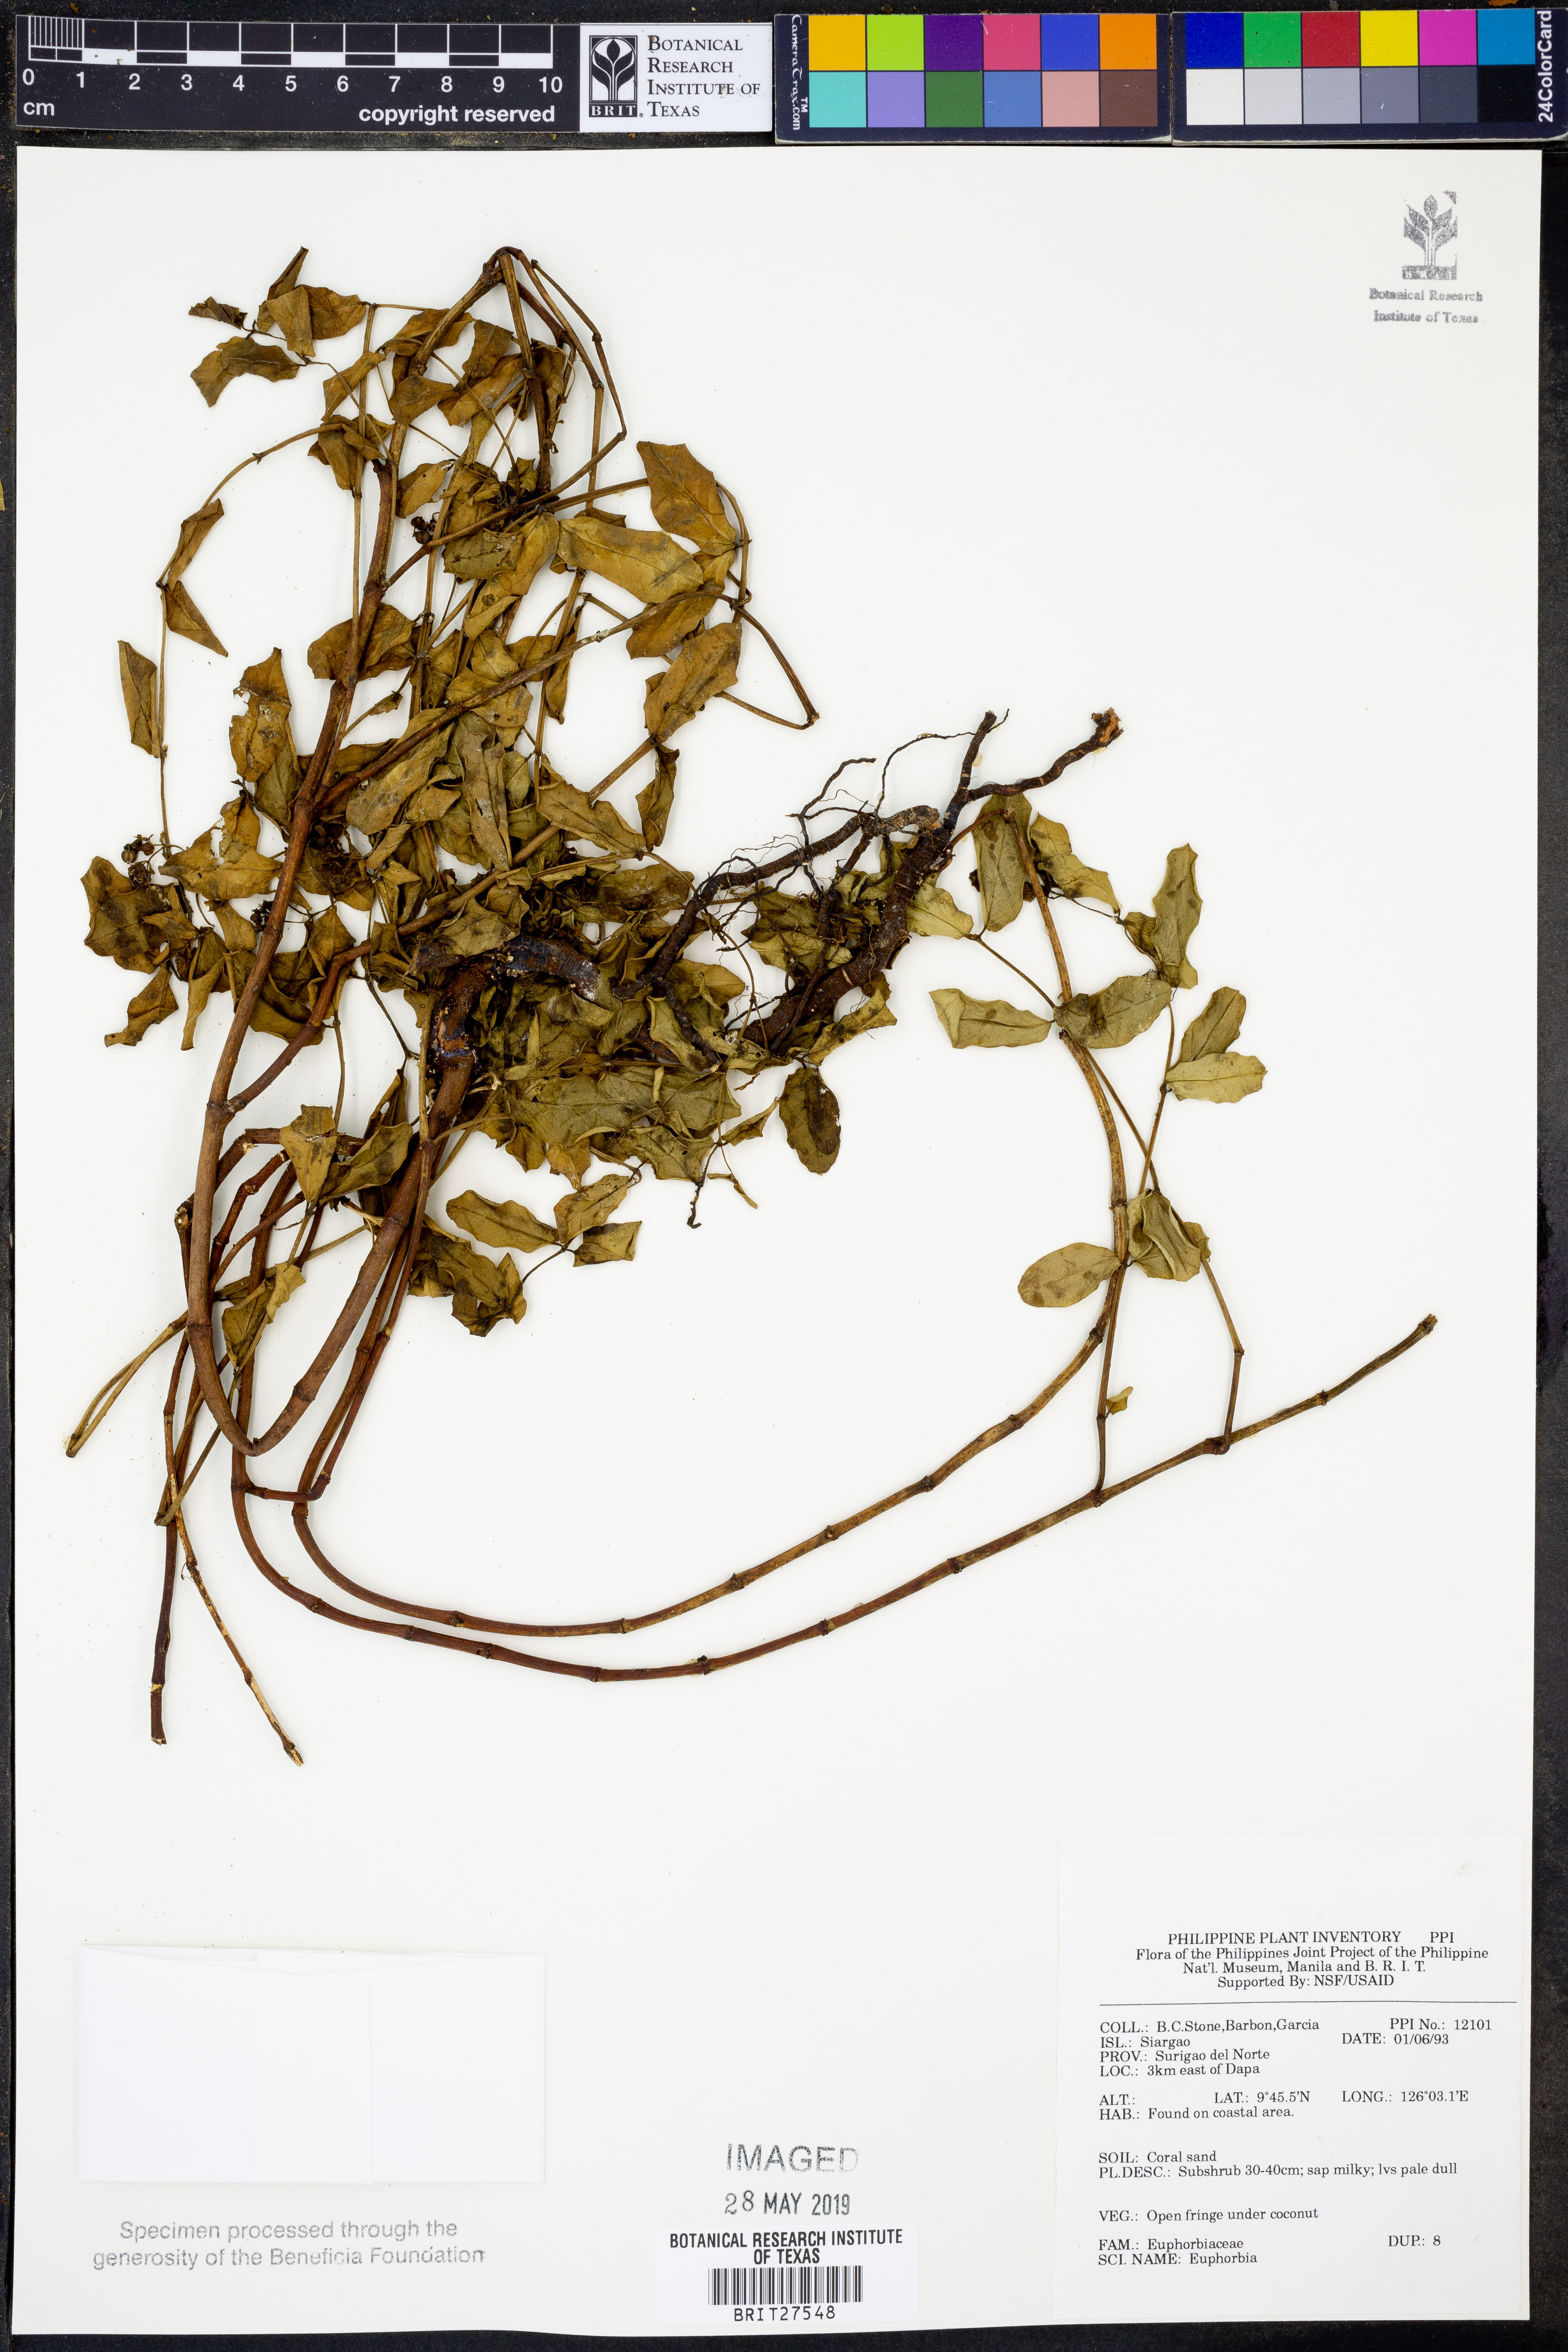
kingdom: Plantae
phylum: Tracheophyta
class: Magnoliopsida
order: Malpighiales
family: Euphorbiaceae
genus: Euphorbia
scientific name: Euphorbia
